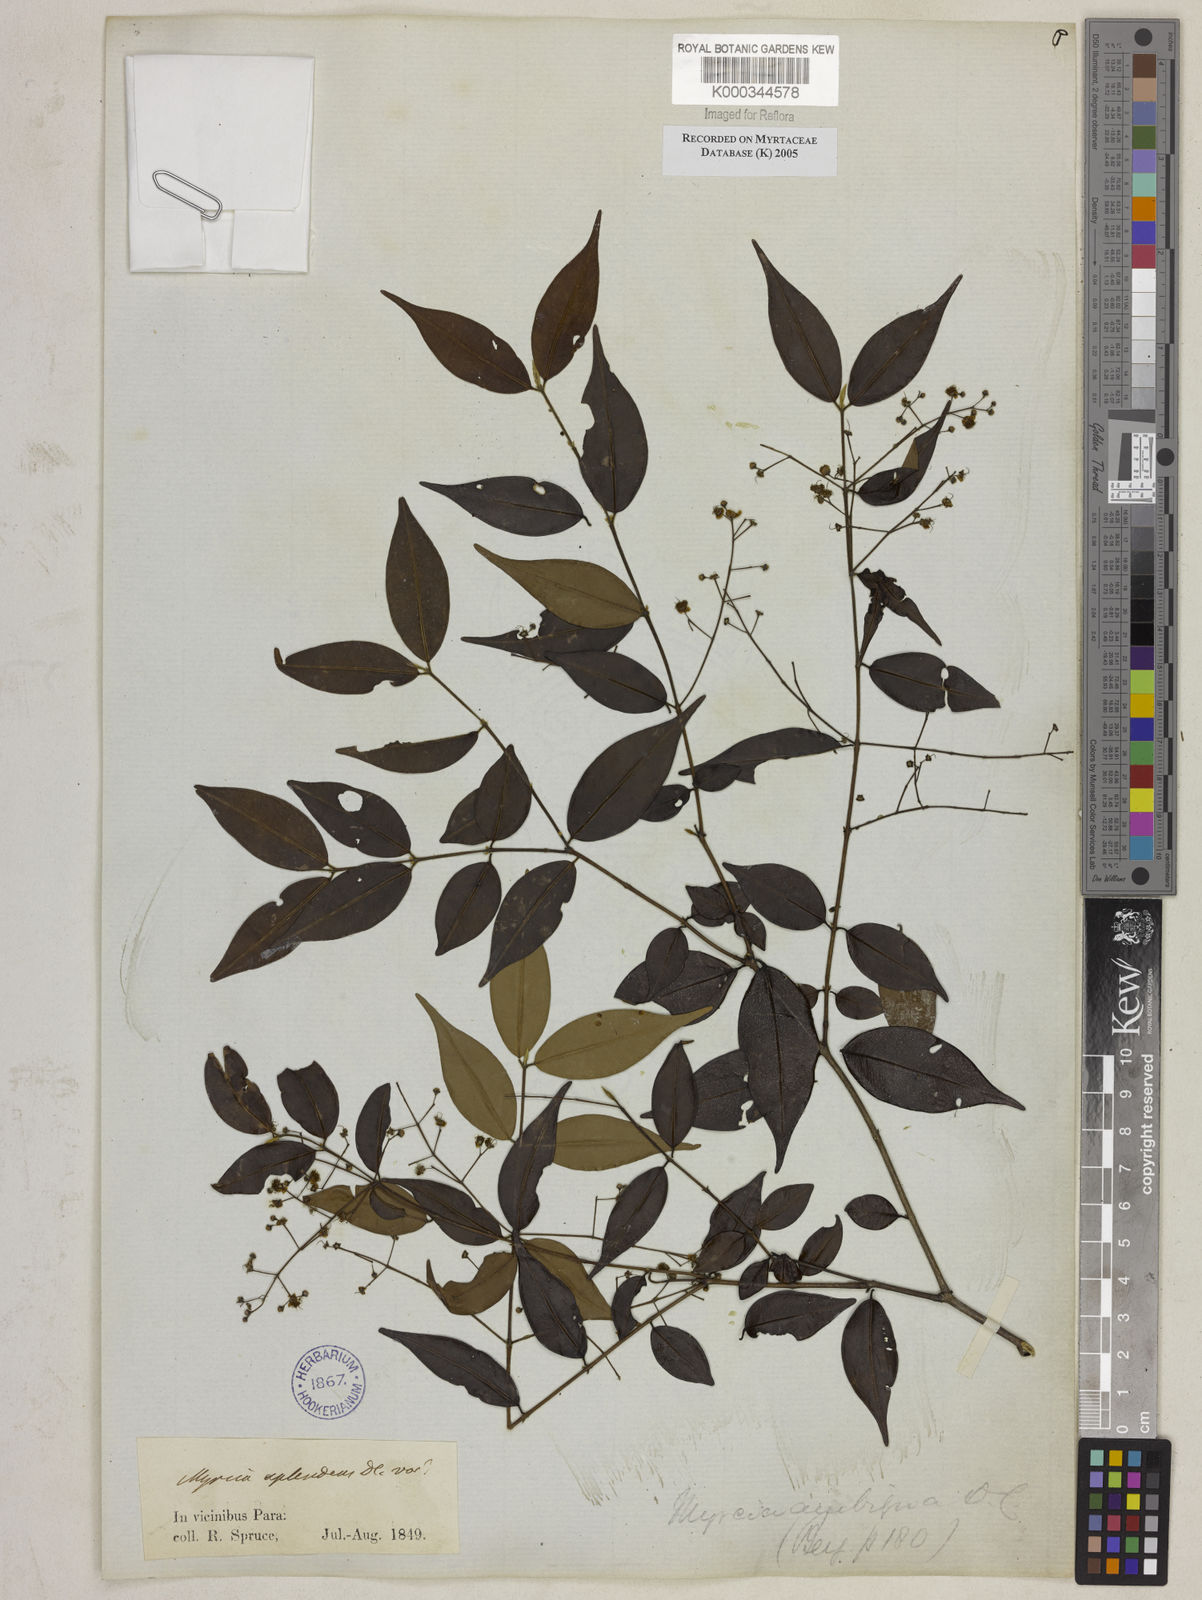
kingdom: Plantae
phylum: Tracheophyta
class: Magnoliopsida
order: Myrtales
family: Myrtaceae
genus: Myrcia
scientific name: Myrcia sylvatica
